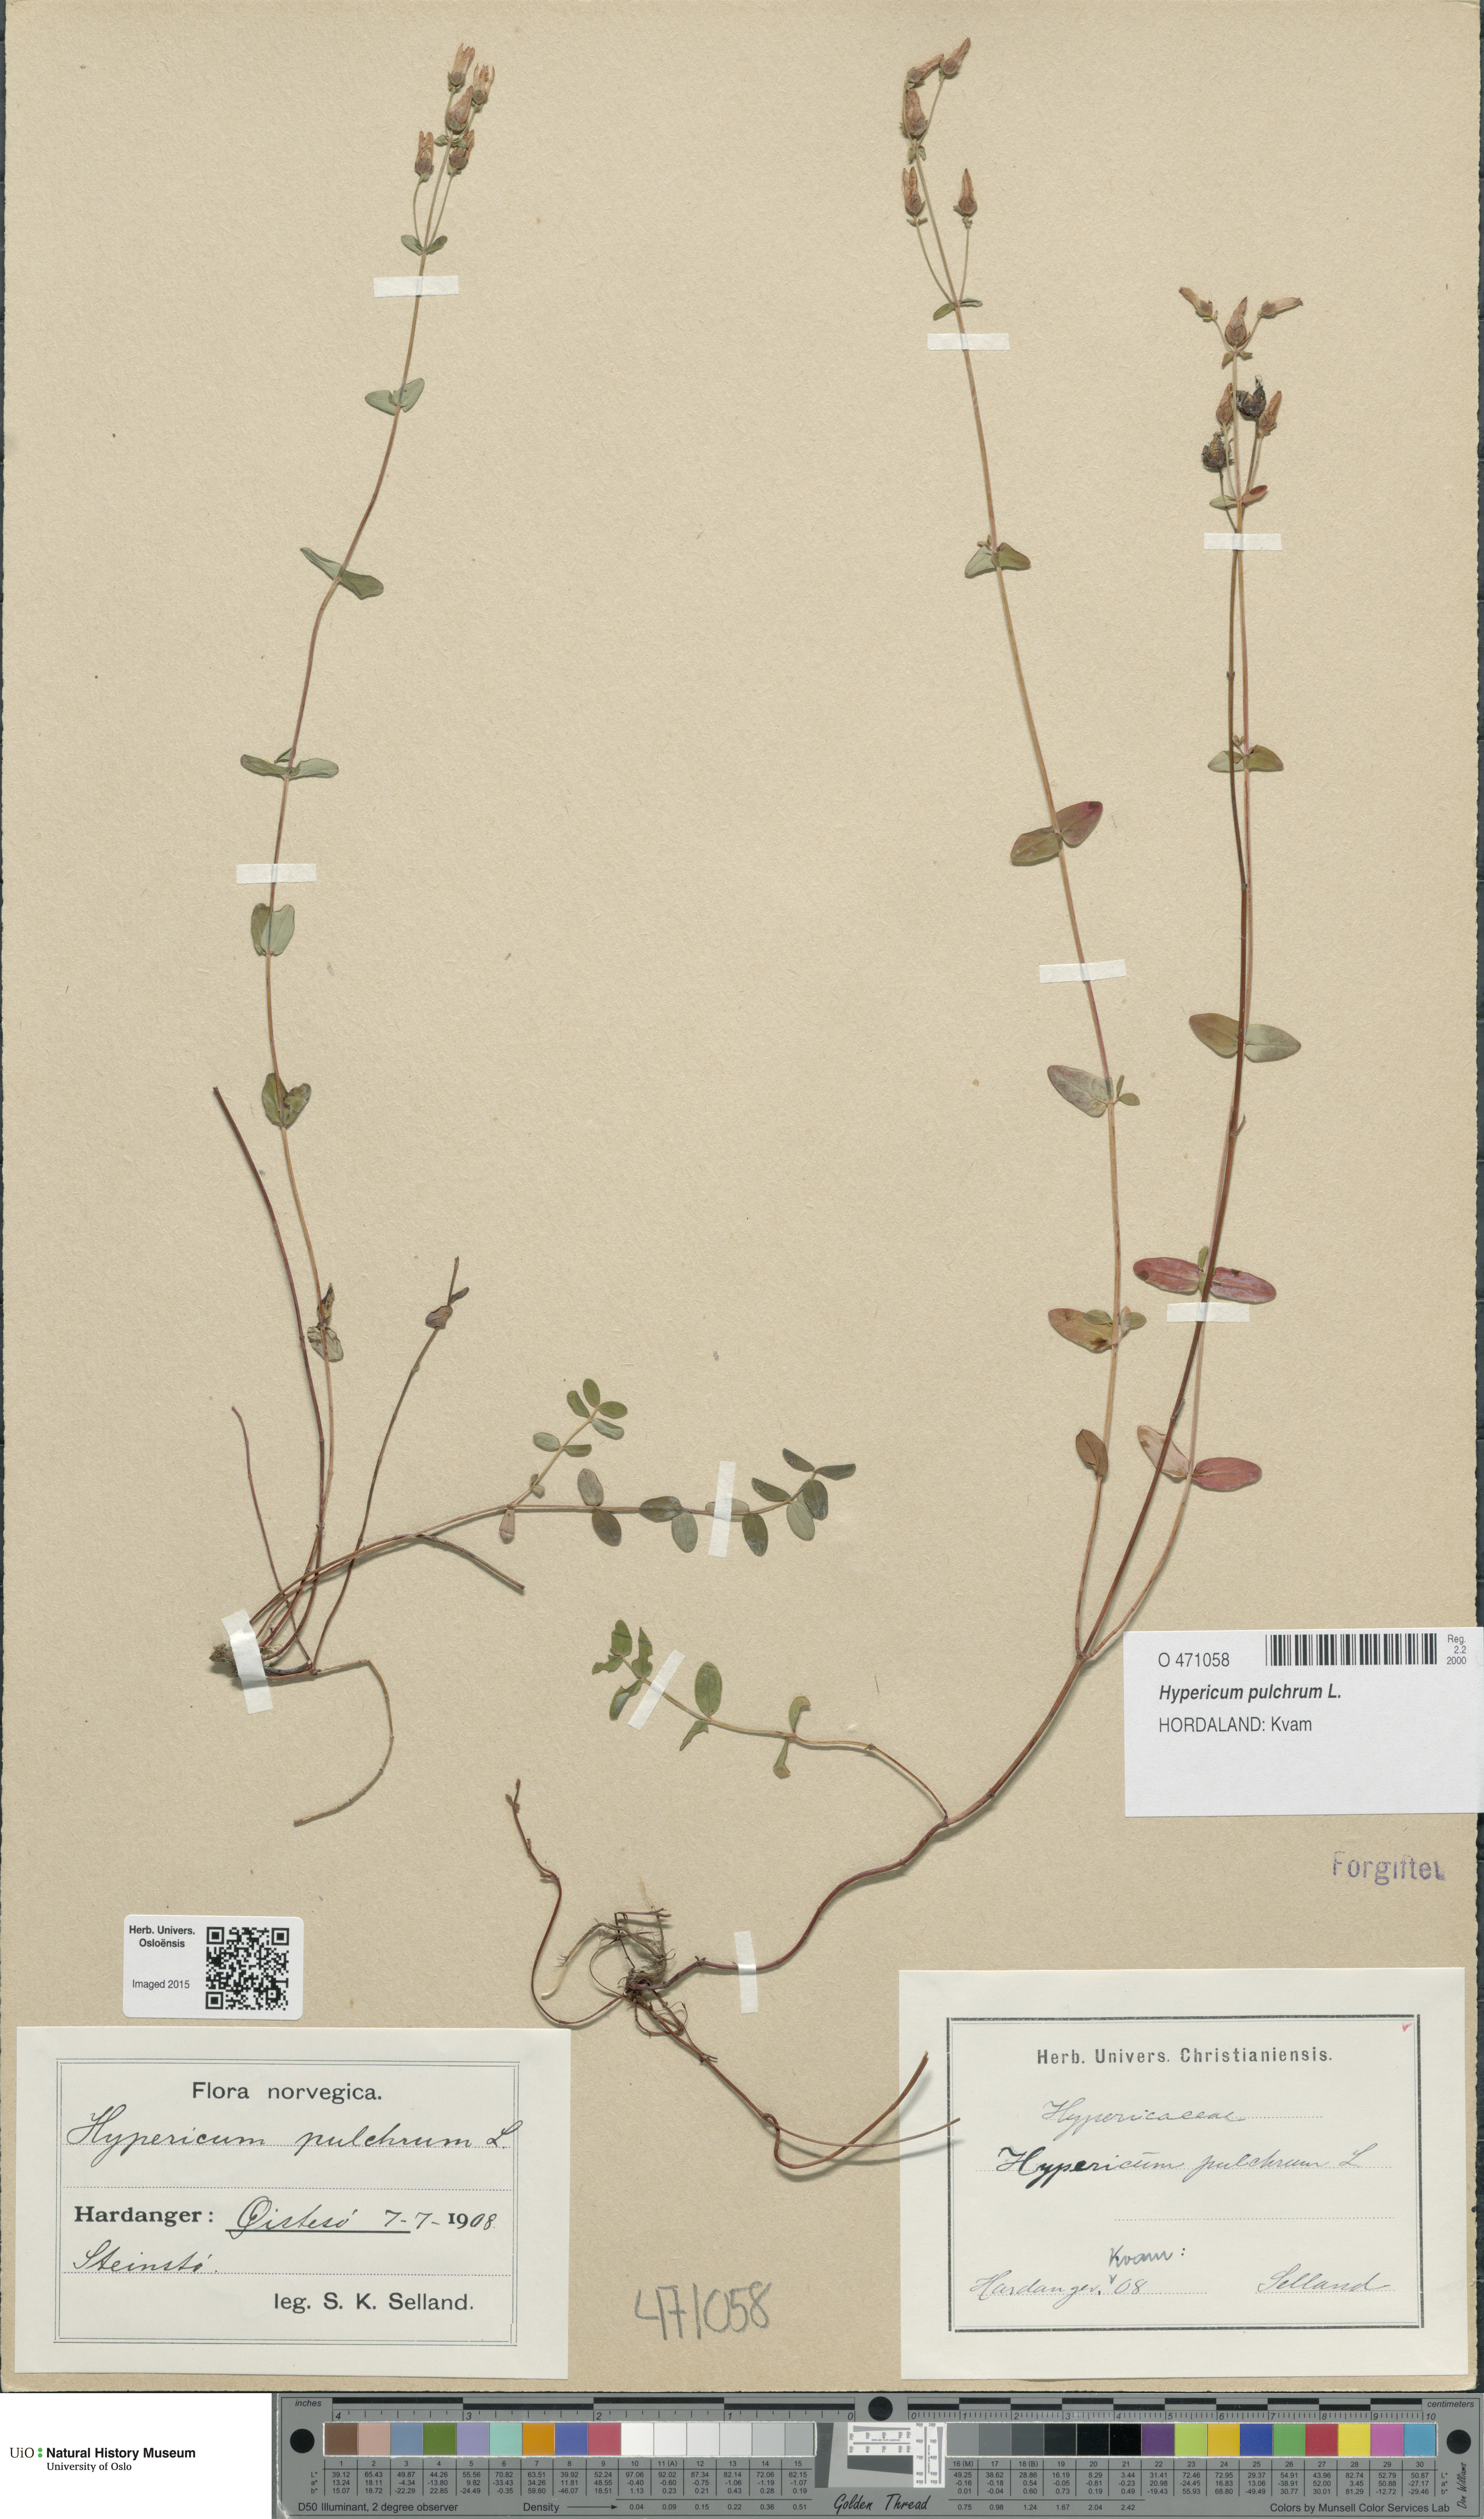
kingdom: Plantae
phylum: Tracheophyta
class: Magnoliopsida
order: Malpighiales
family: Hypericaceae
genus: Hypericum
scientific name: Hypericum pulchrum
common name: Slender st. john's-wort
